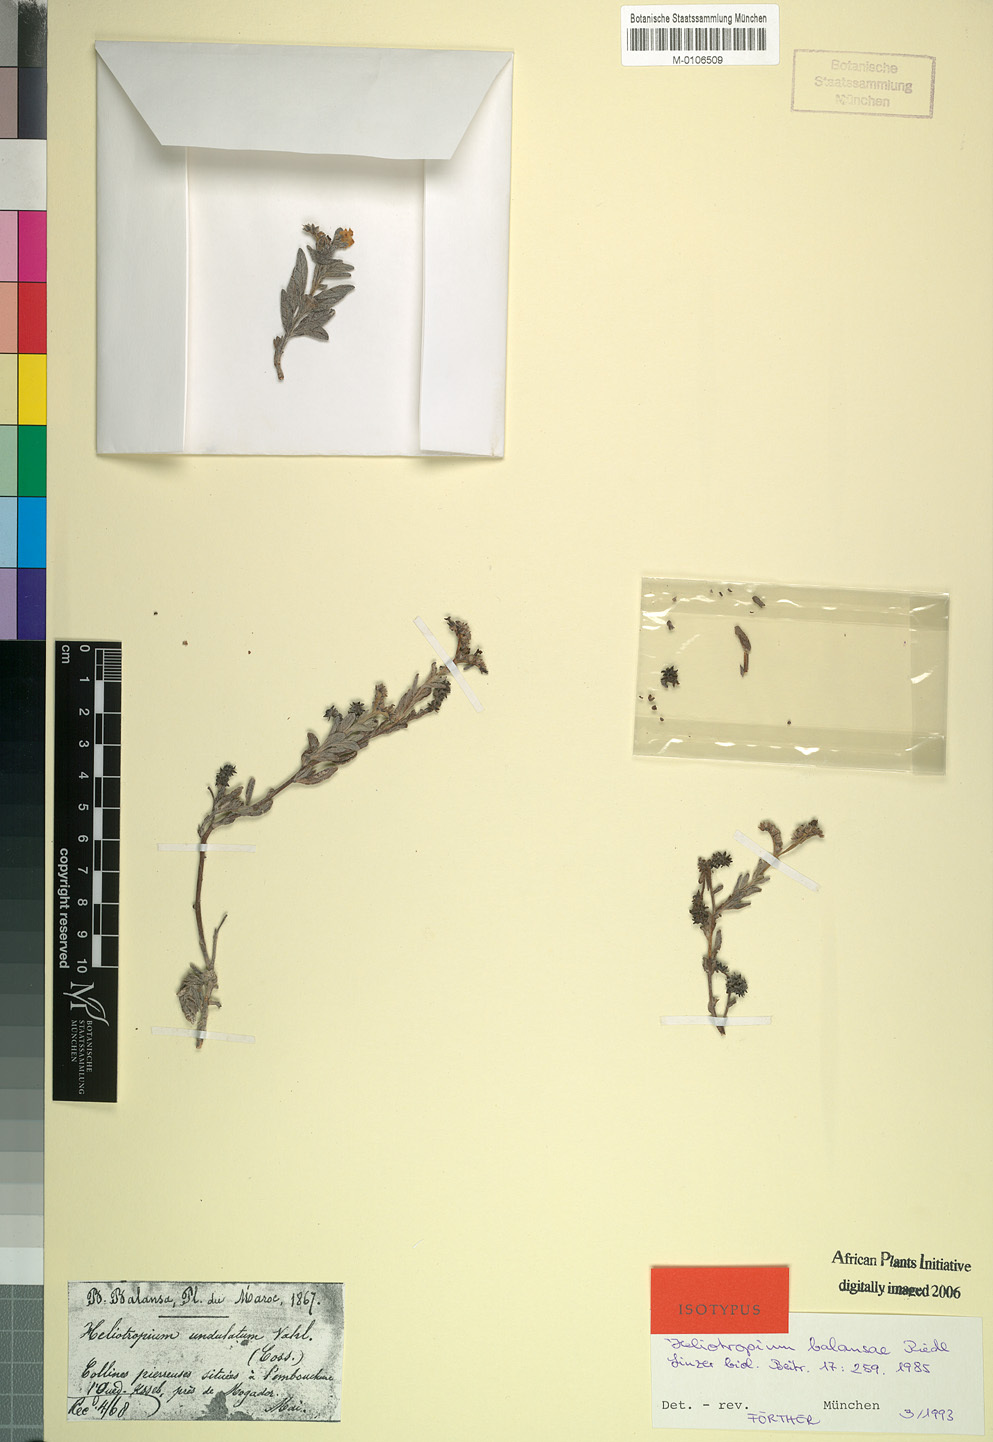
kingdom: Plantae
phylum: Tracheophyta
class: Magnoliopsida
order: Boraginales
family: Heliotropiaceae
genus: Heliotropium
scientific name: Heliotropium ramosissimum
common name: Wavy heliotrope
